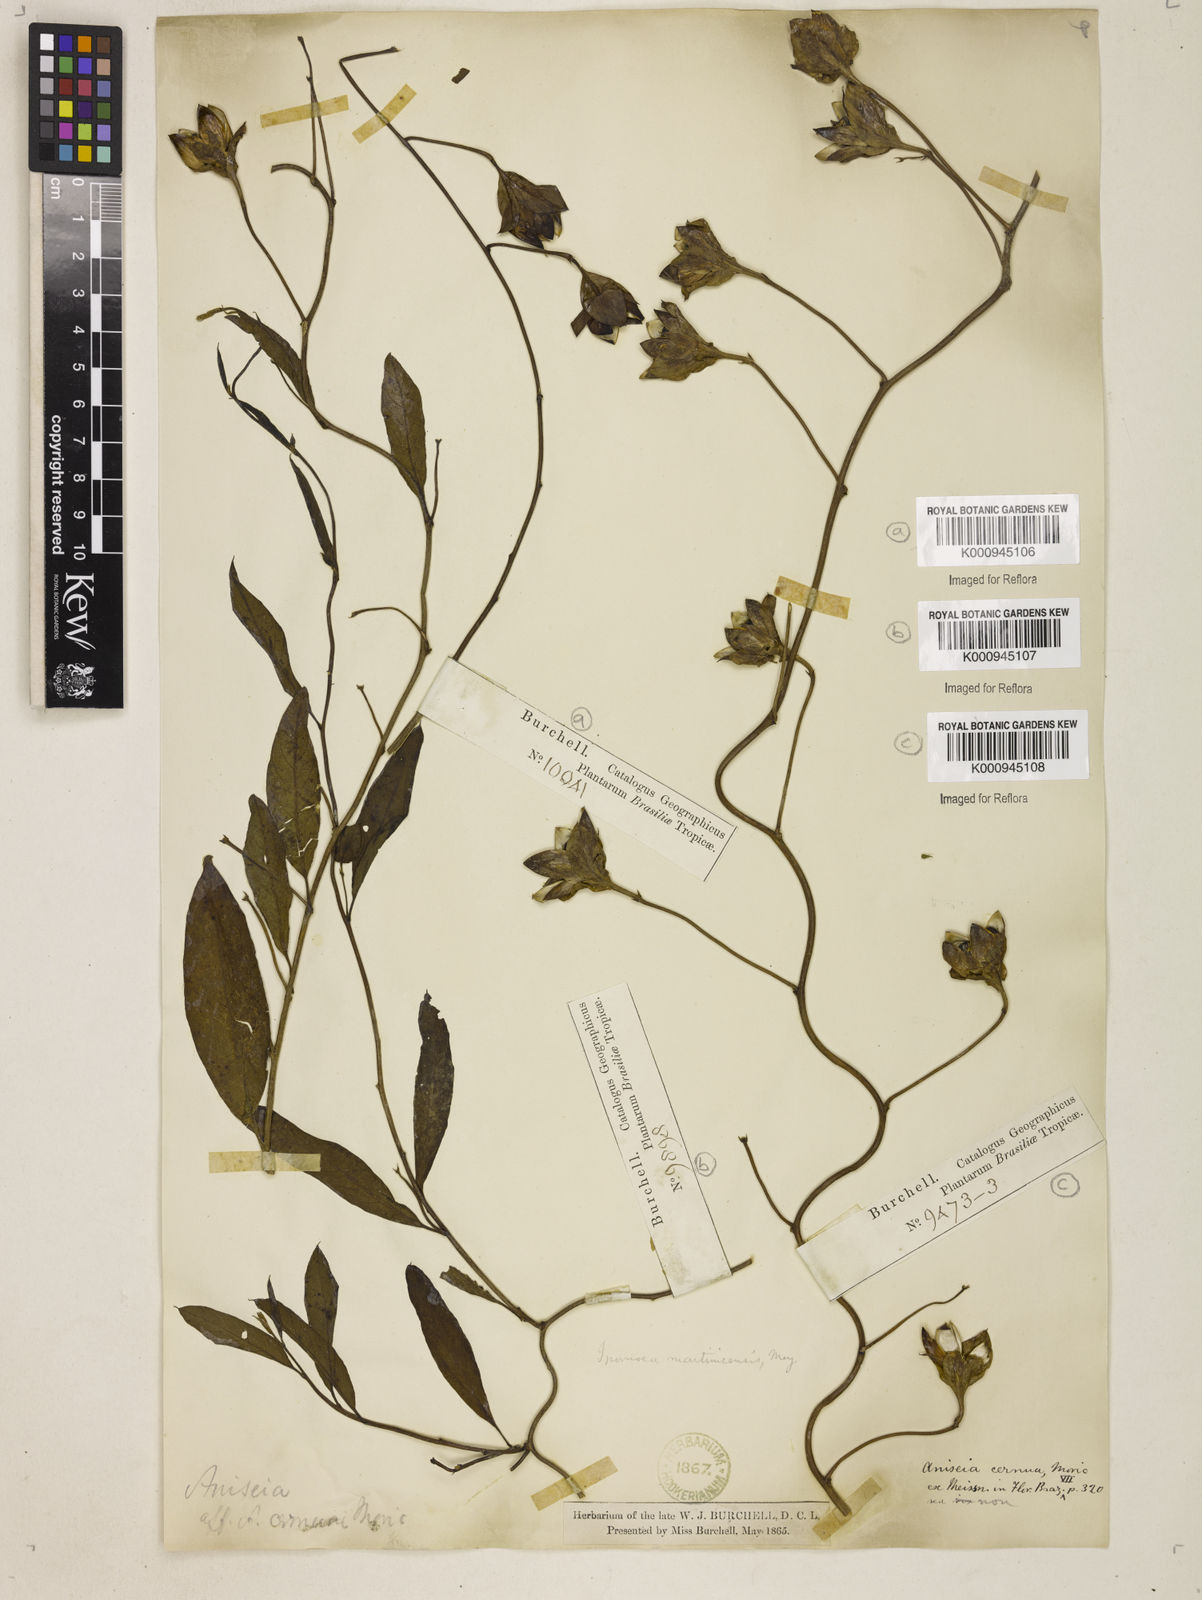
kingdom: Plantae
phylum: Tracheophyta
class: Magnoliopsida
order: Solanales
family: Convolvulaceae
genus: Aniseia
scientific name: Aniseia martinicensis
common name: Kulayadambu
